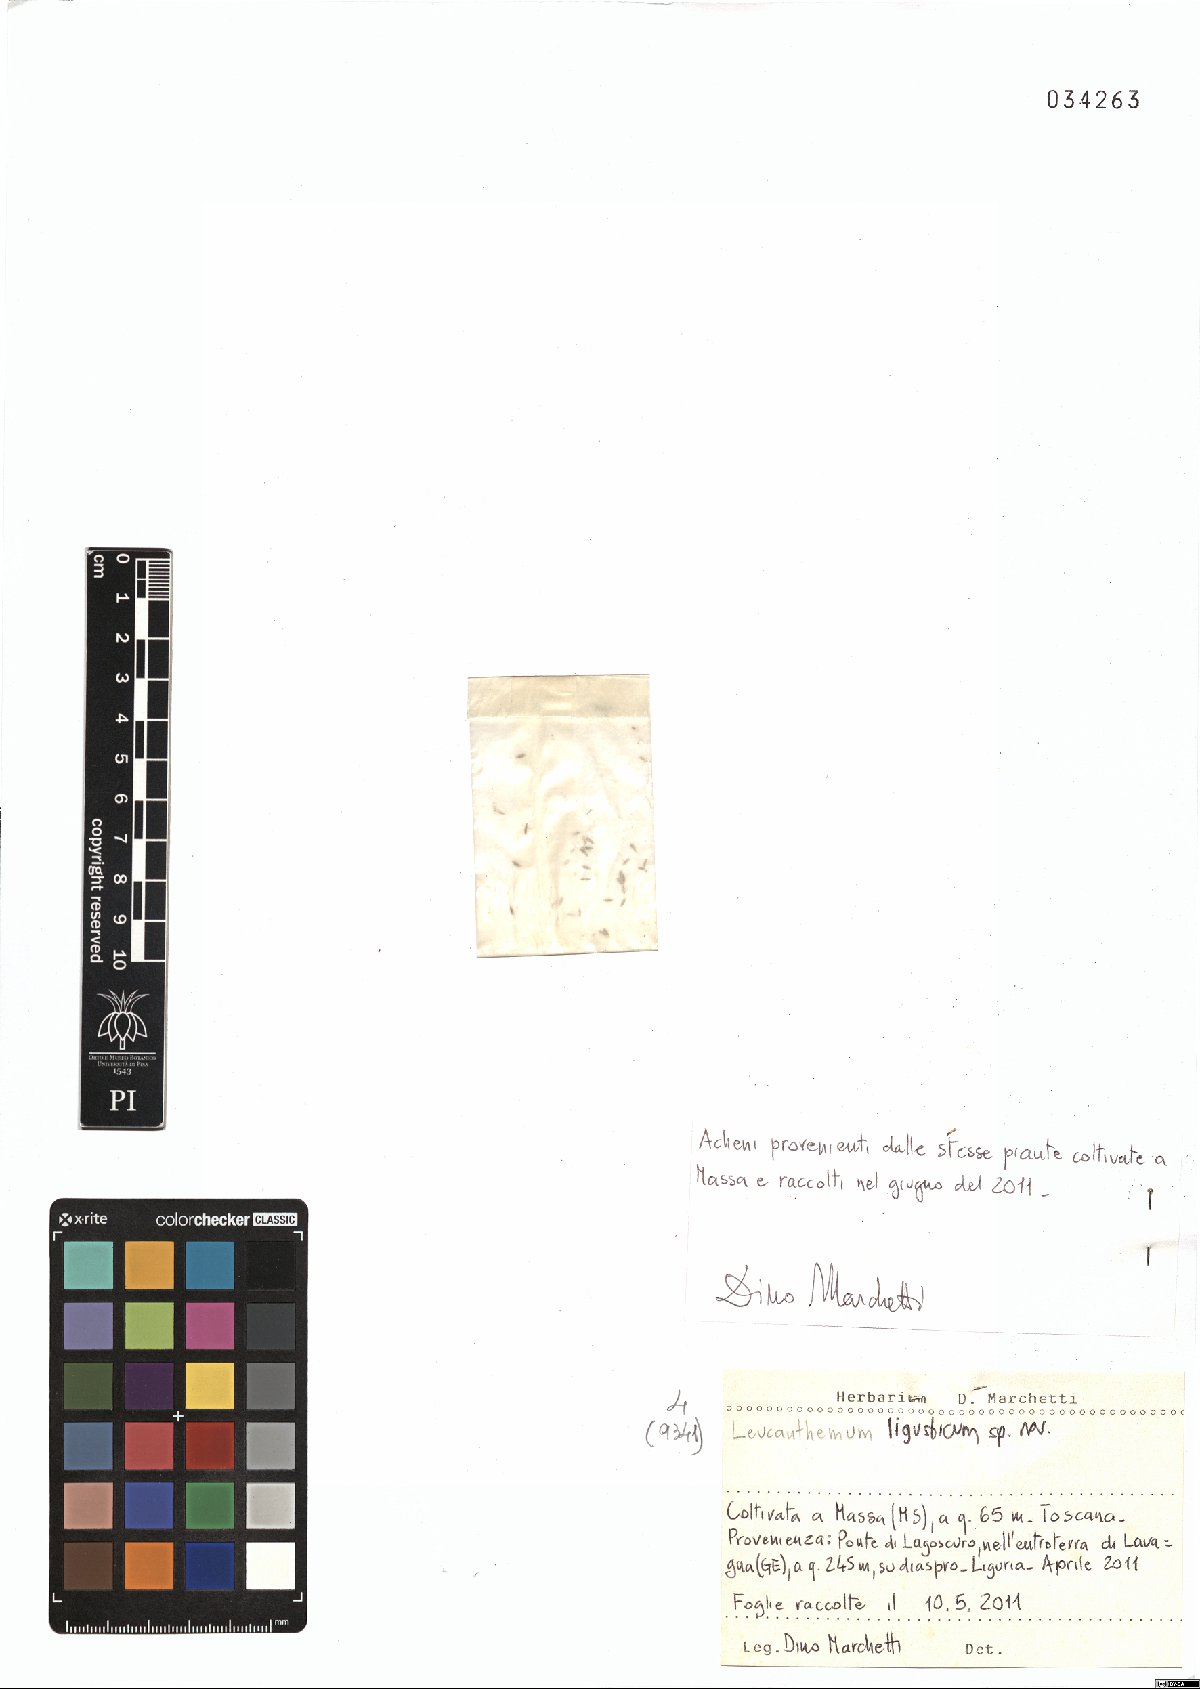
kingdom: Plantae
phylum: Tracheophyta
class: Magnoliopsida
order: Asterales
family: Asteraceae
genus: Leucanthemum
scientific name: Leucanthemum ligusticum
